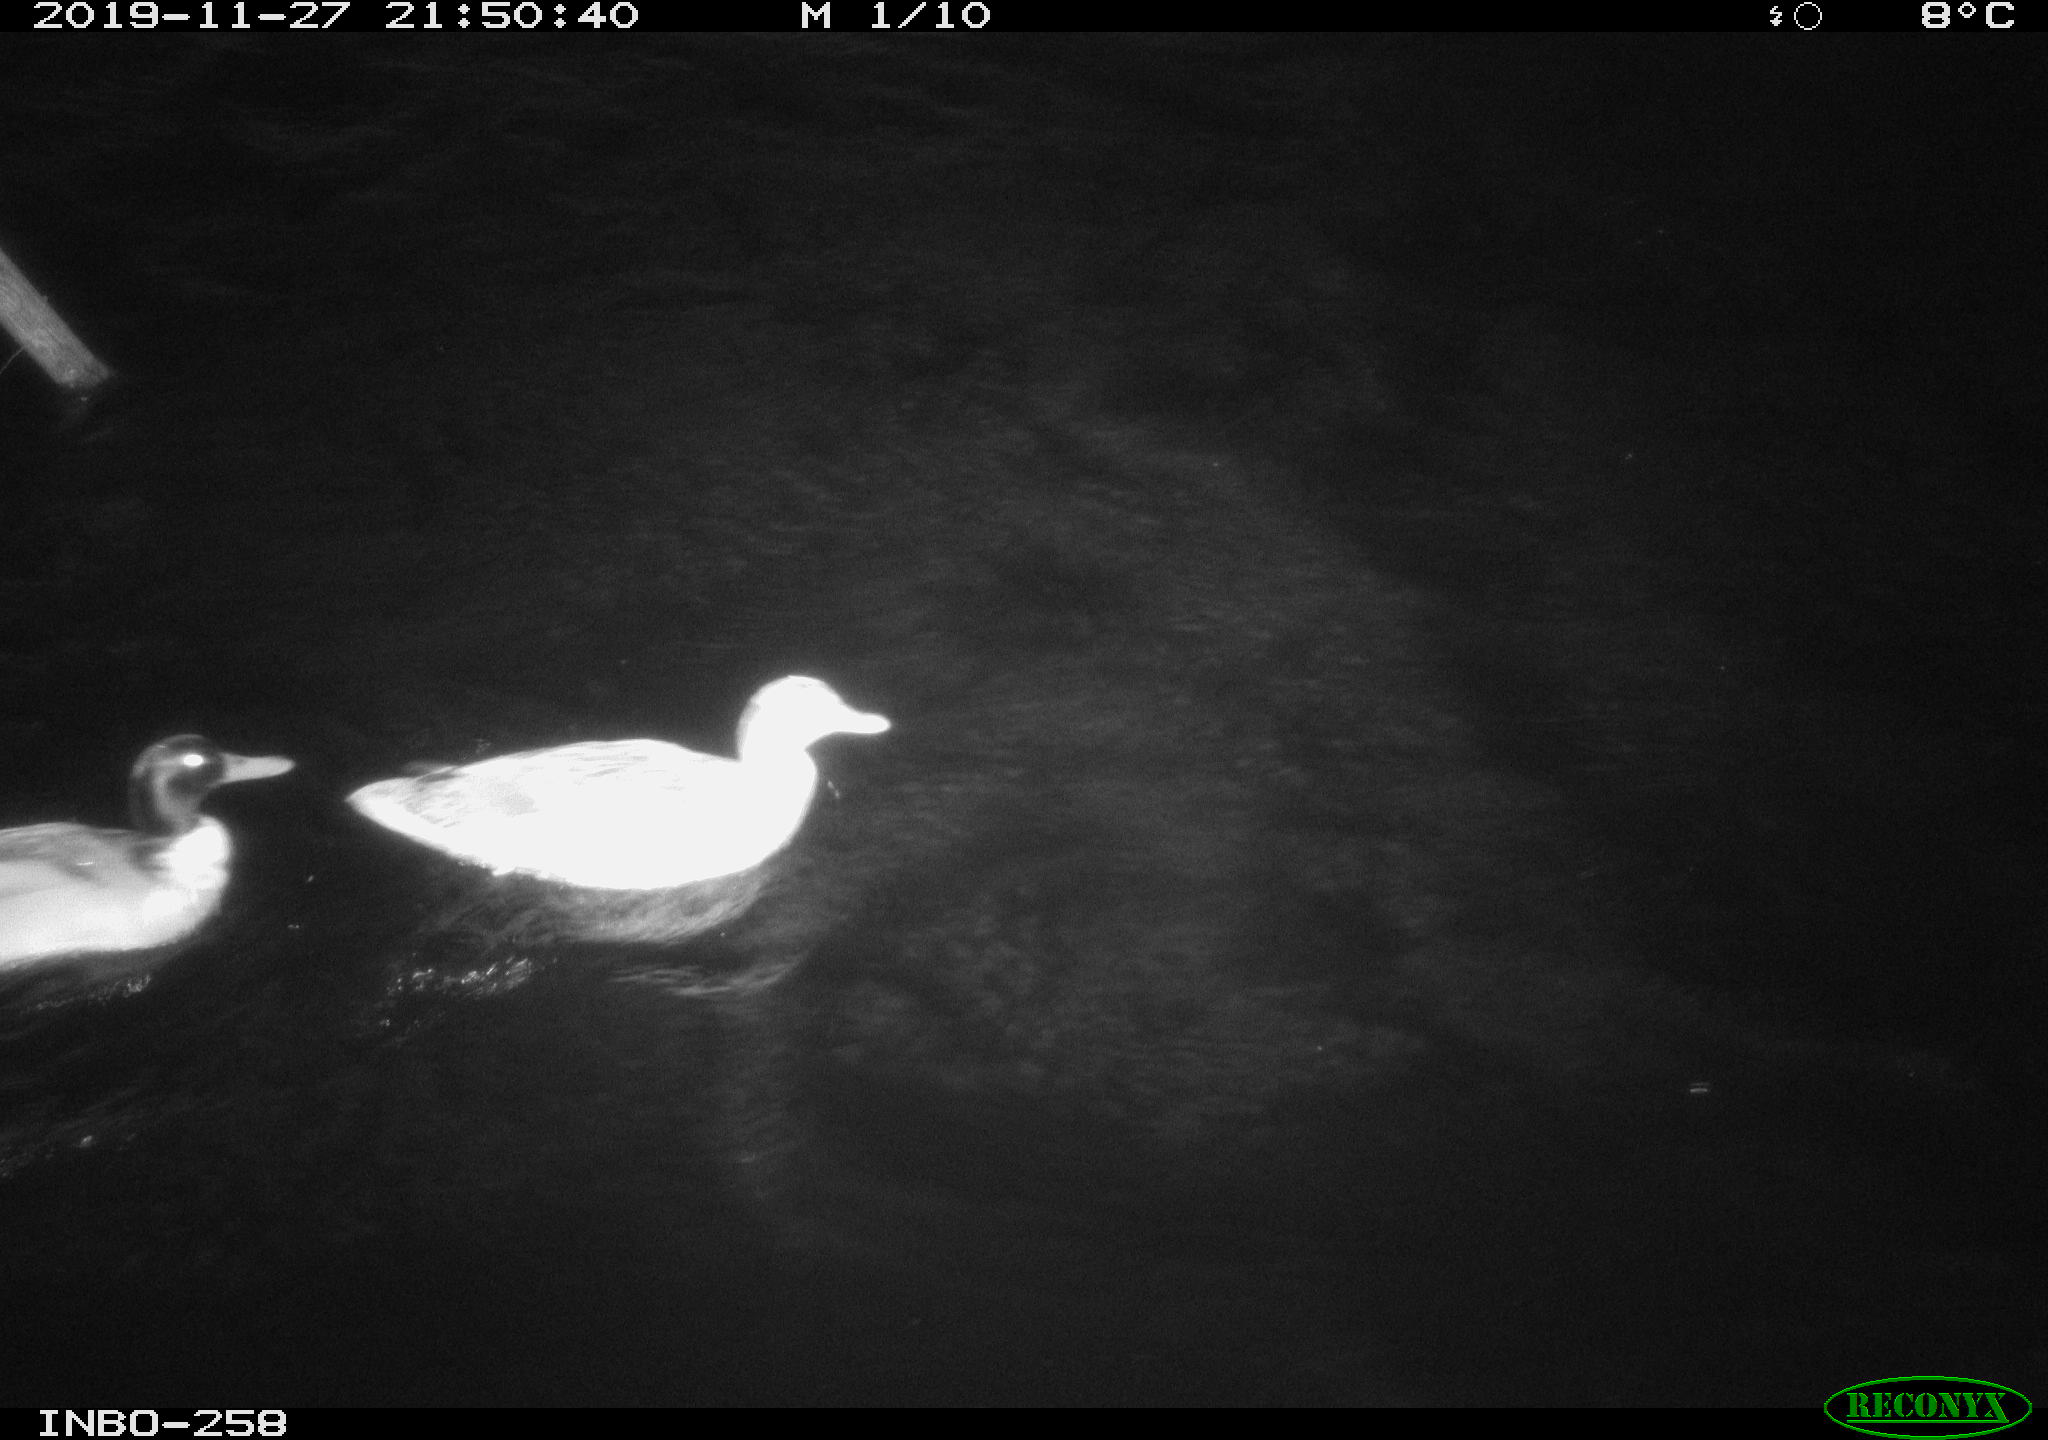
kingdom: Animalia
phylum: Chordata
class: Aves
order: Anseriformes
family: Anatidae
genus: Anas
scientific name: Anas platyrhynchos
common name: Mallard
